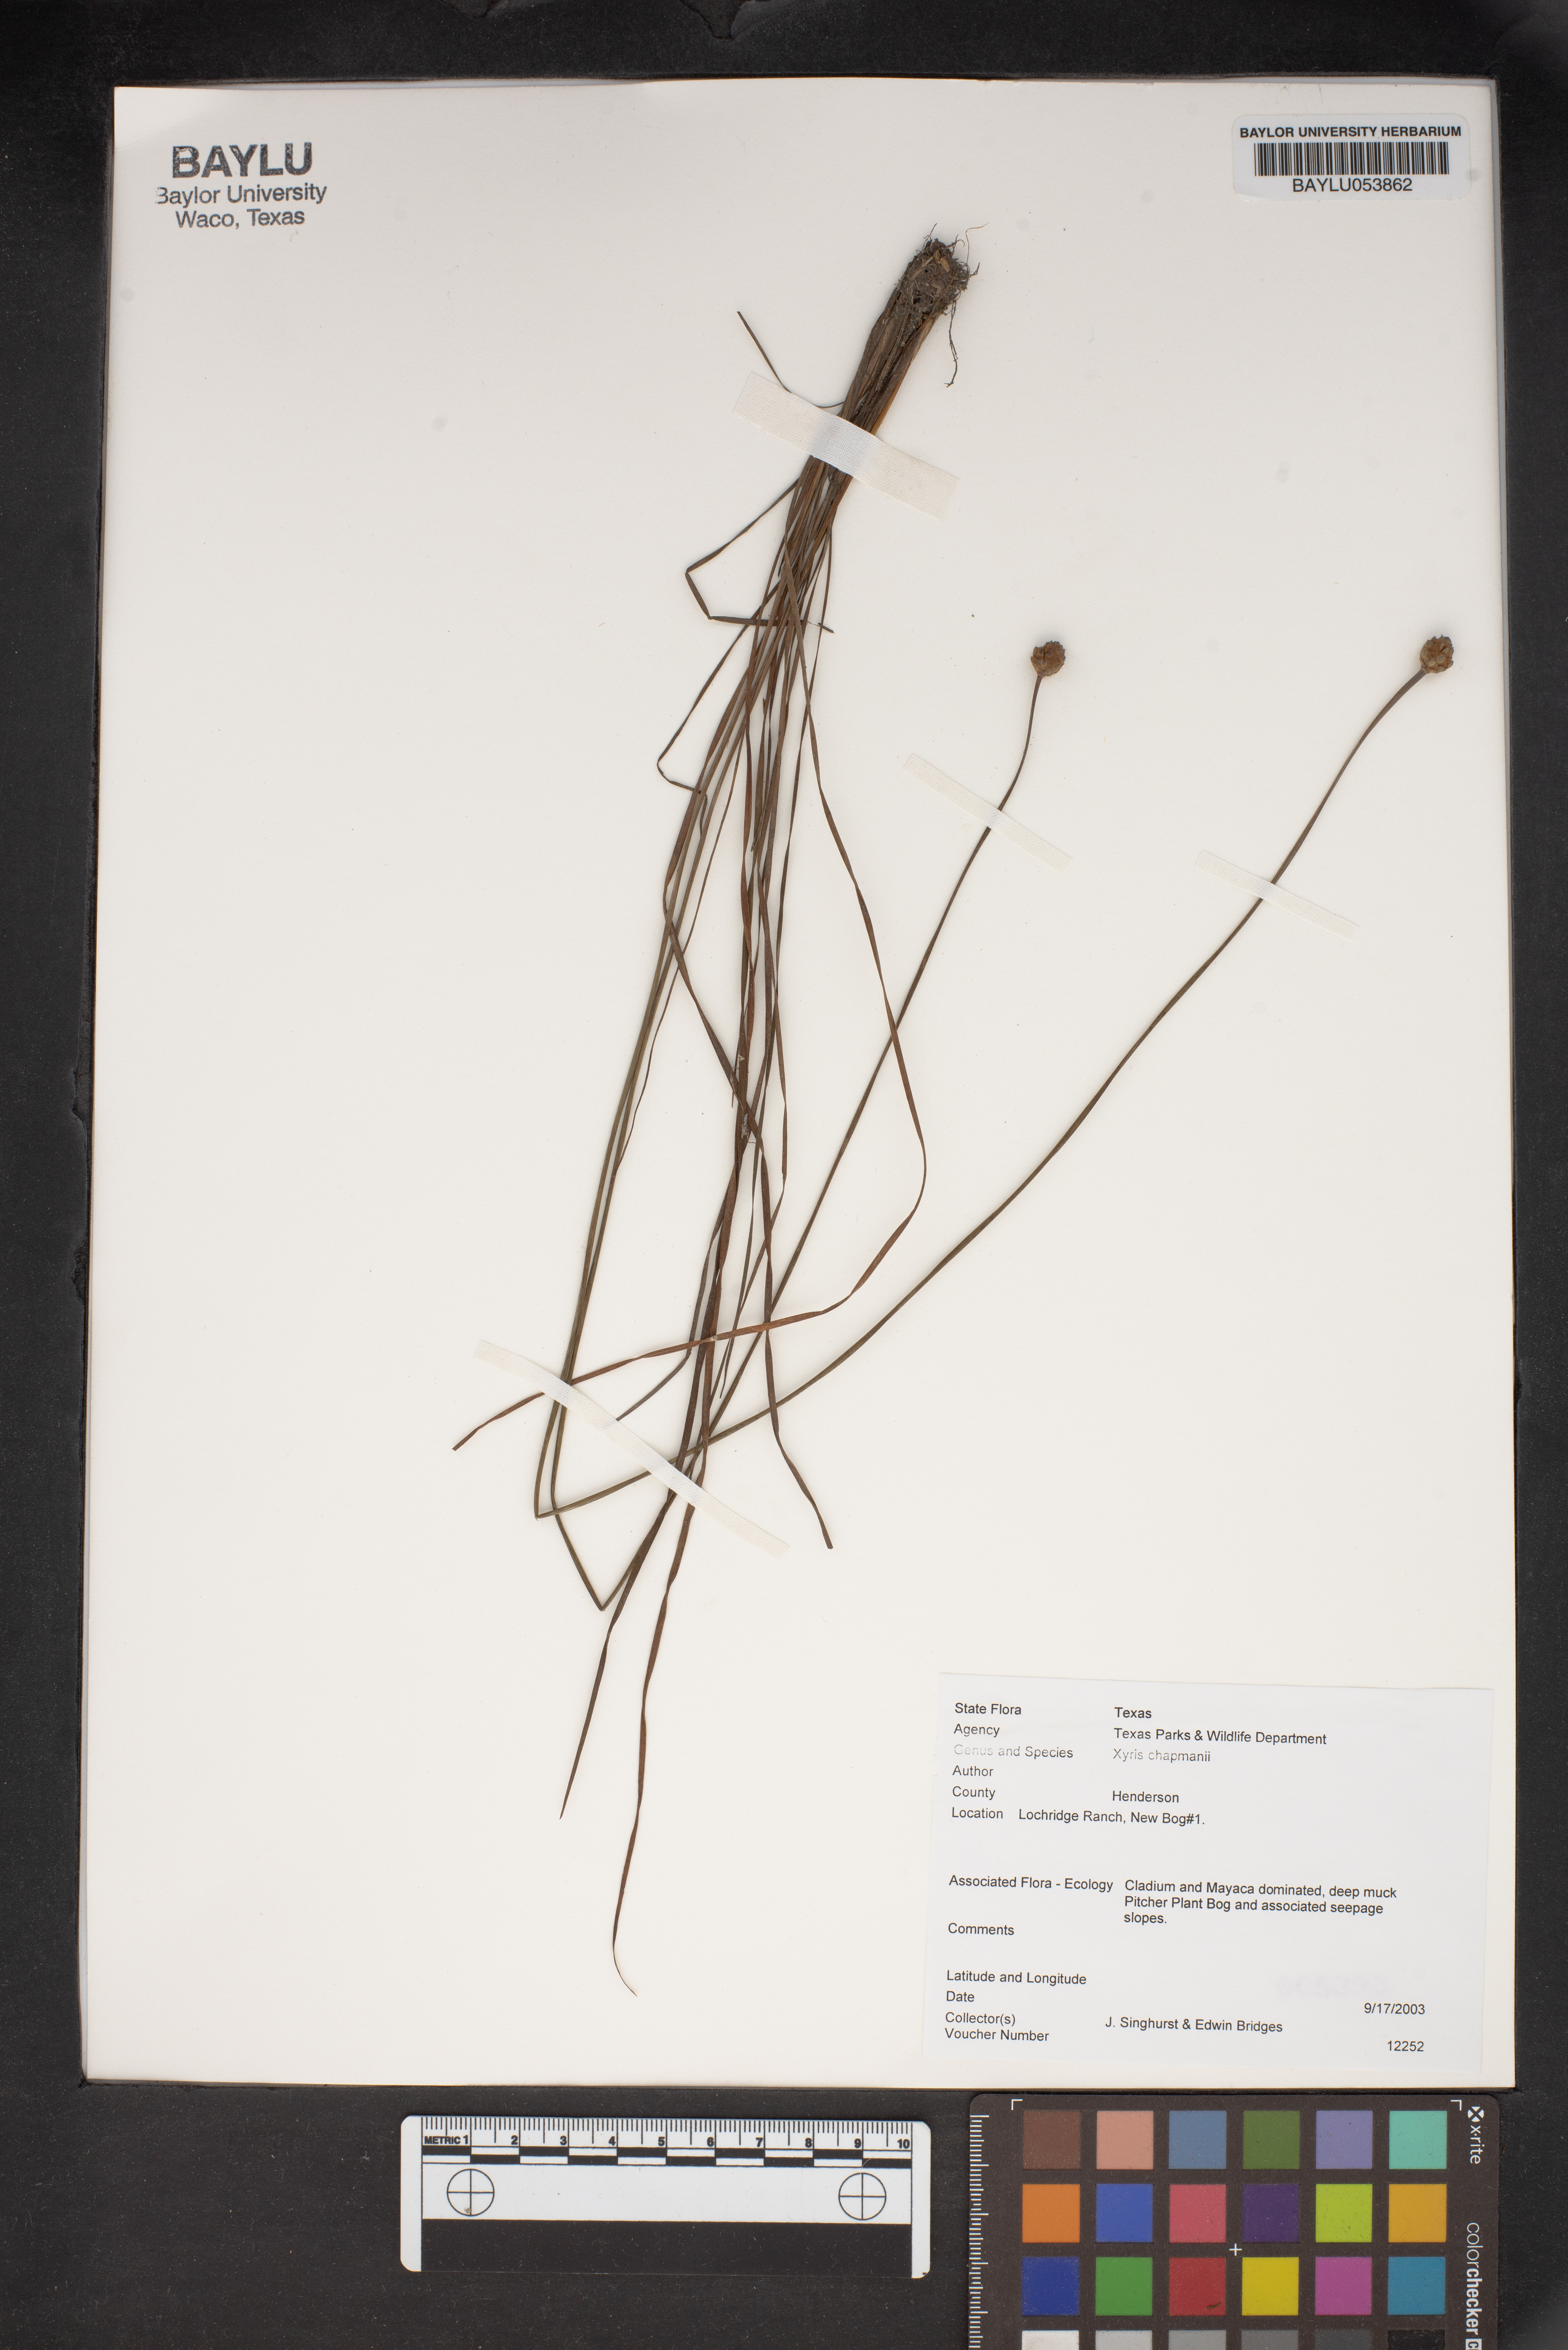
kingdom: Plantae
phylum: Tracheophyta
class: Liliopsida
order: Poales
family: Xyridaceae
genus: Xyris
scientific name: Xyris chapmanii
